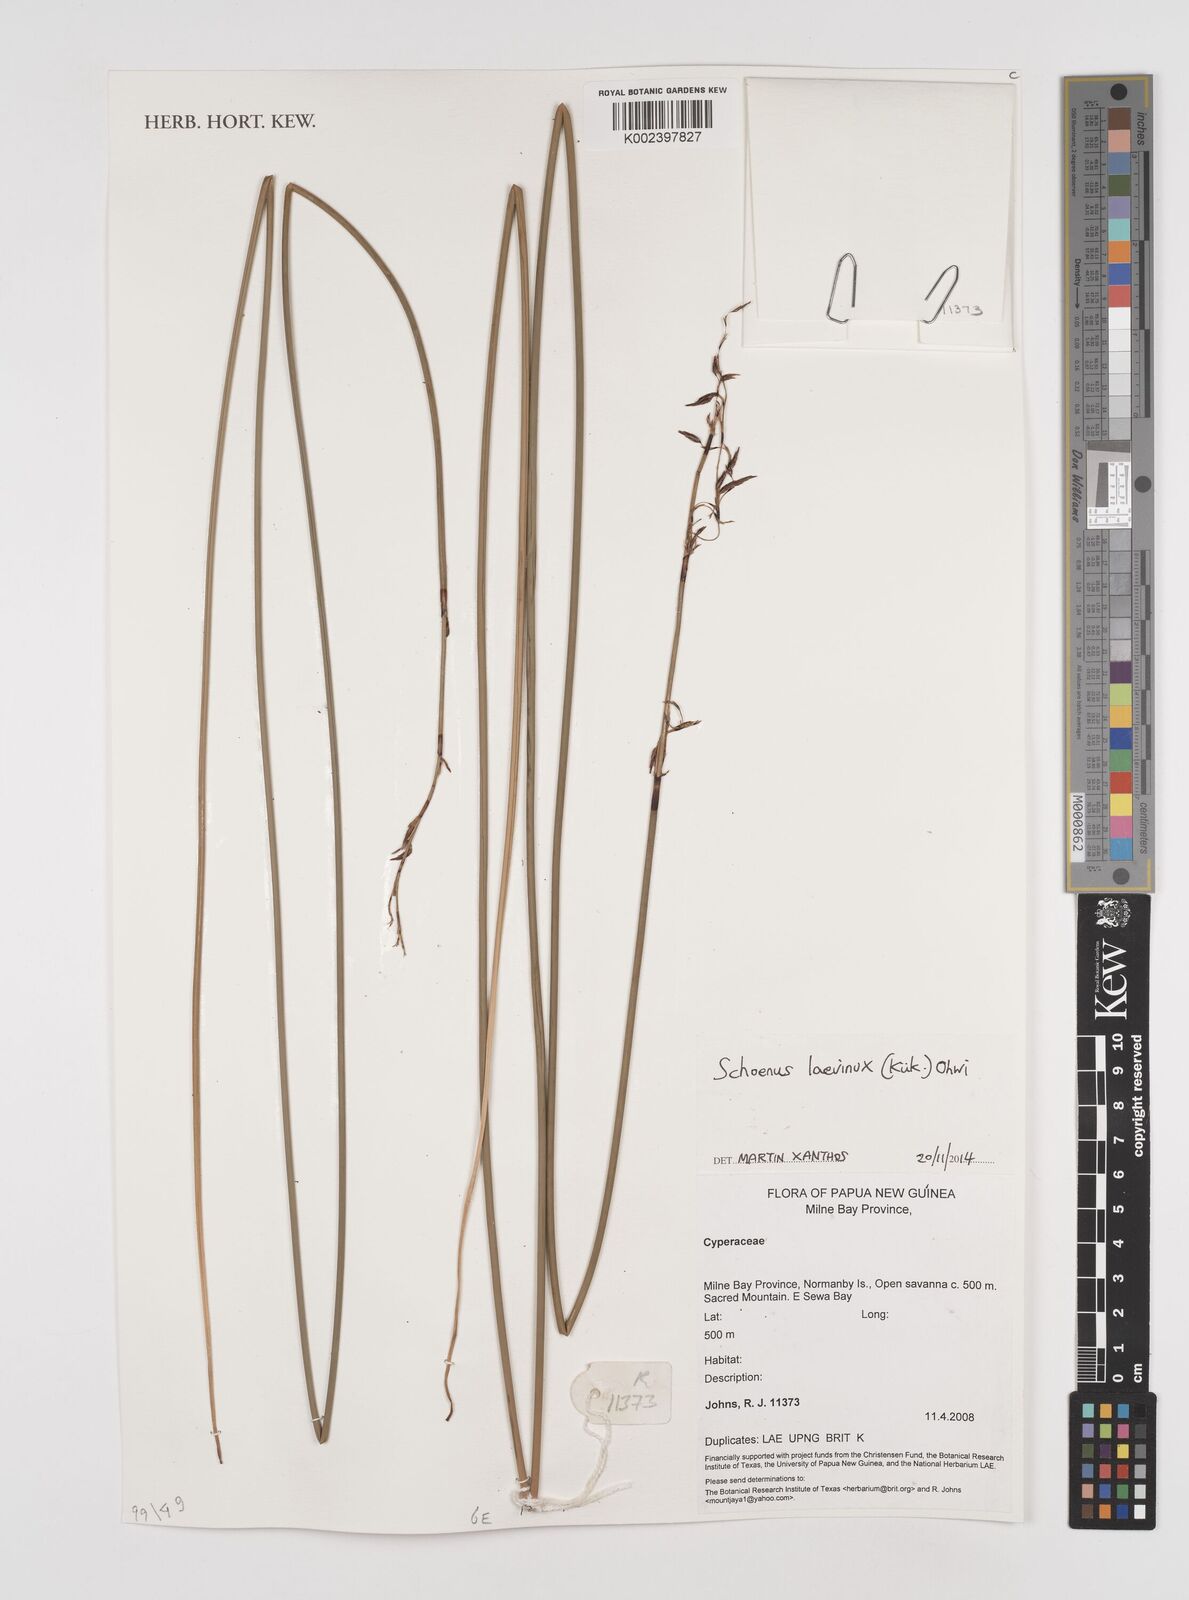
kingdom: Plantae
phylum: Tracheophyta
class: Liliopsida
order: Poales
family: Cyperaceae
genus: Schoenus
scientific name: Schoenus laevinux
